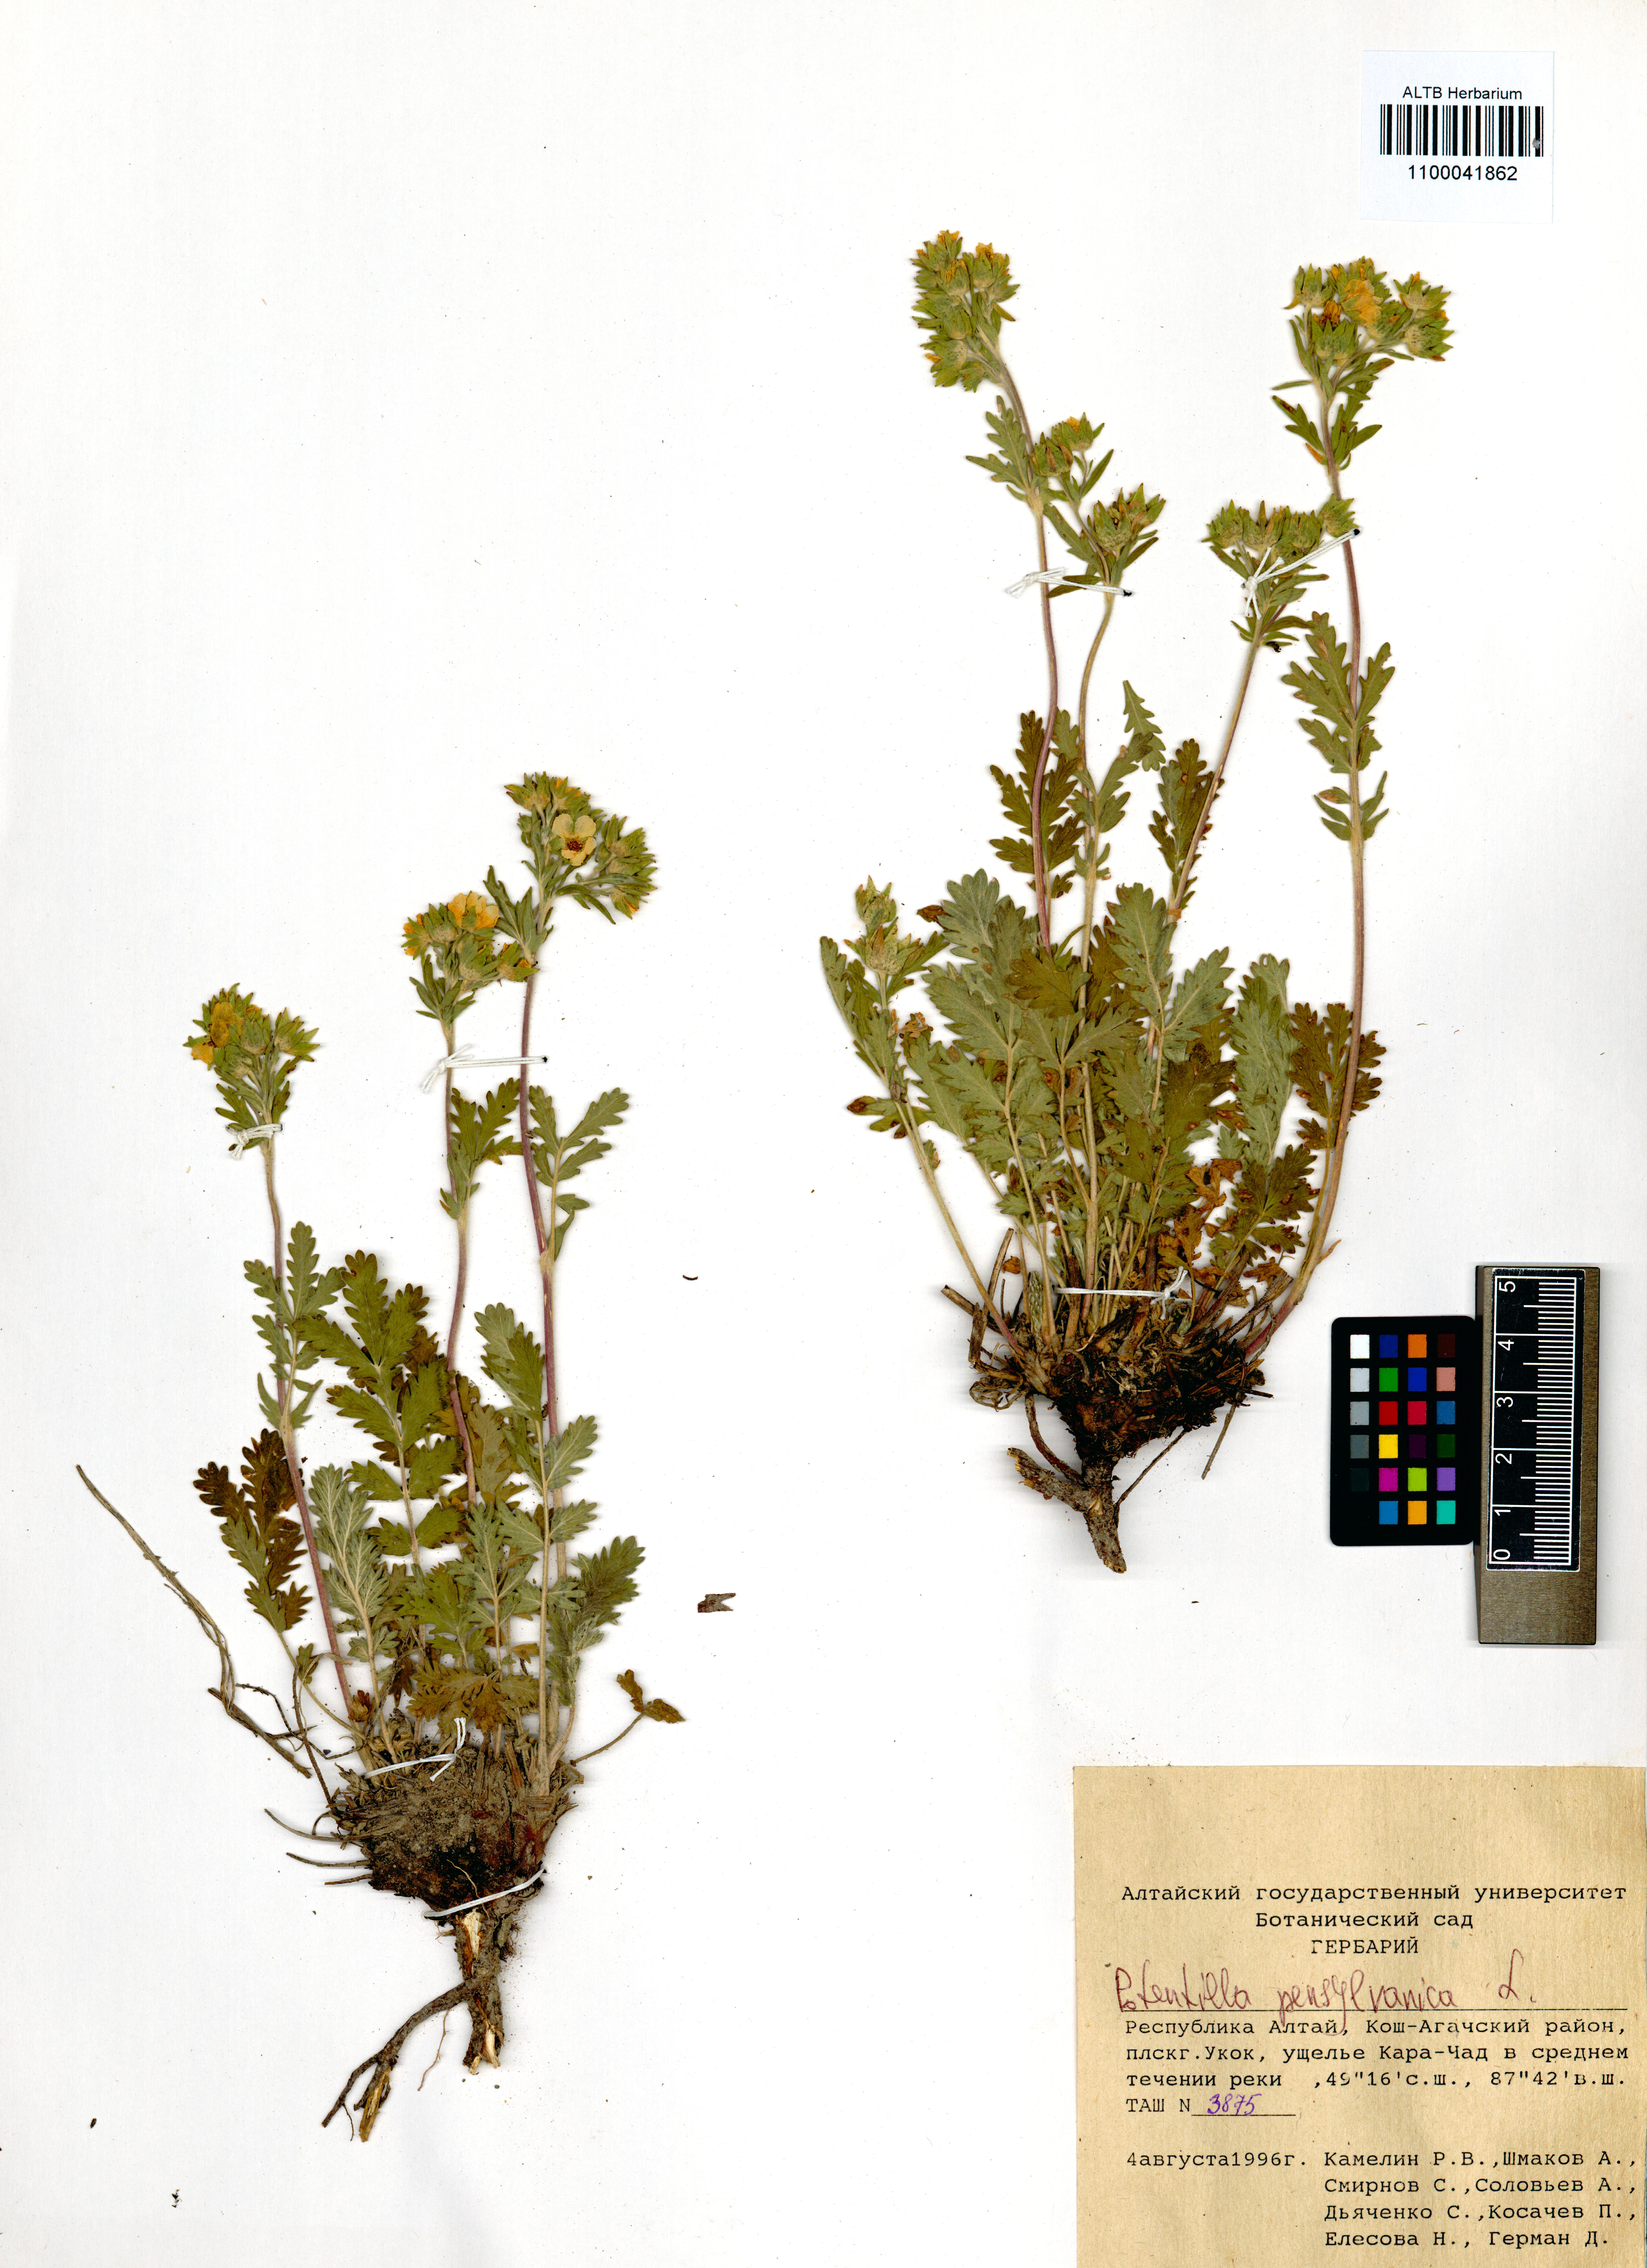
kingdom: Plantae
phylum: Tracheophyta
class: Magnoliopsida
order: Rosales
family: Rosaceae
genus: Potentilla
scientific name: Potentilla pensylvanica
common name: Pennsylvania cinquefoil
